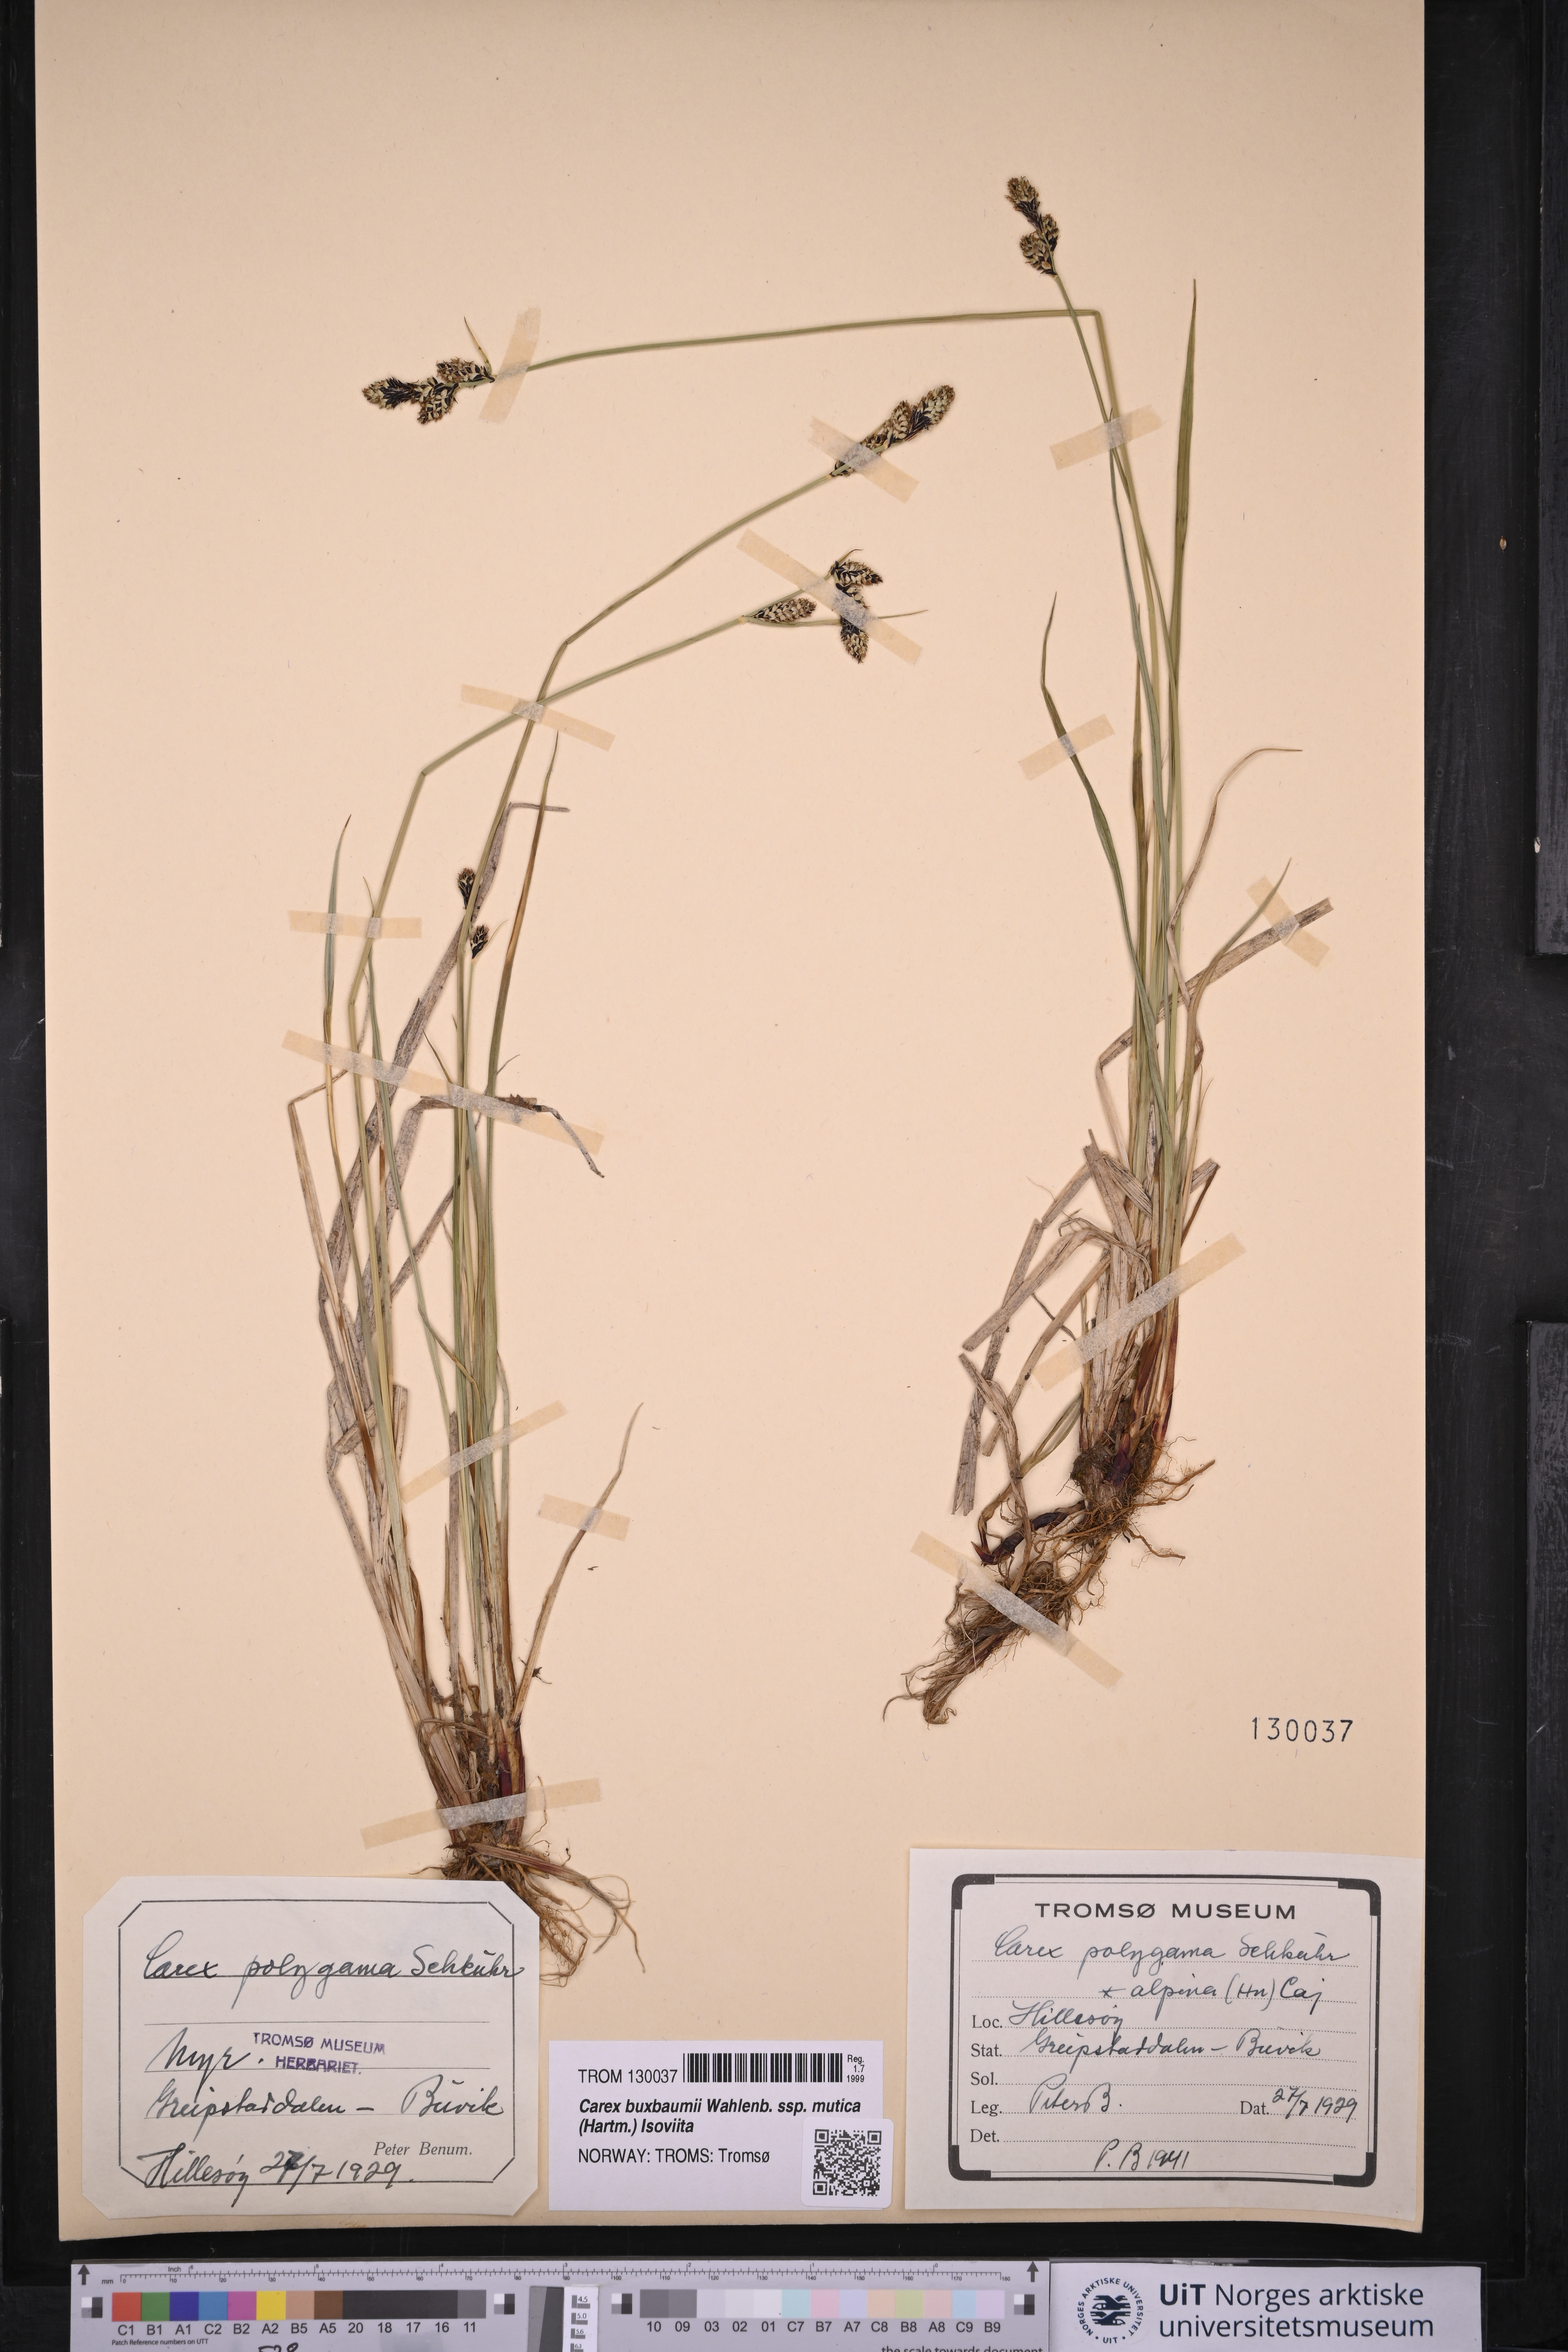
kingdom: Plantae
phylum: Tracheophyta
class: Liliopsida
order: Poales
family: Cyperaceae
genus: Carex
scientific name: Carex adelostoma
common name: Circumpolar sedge
